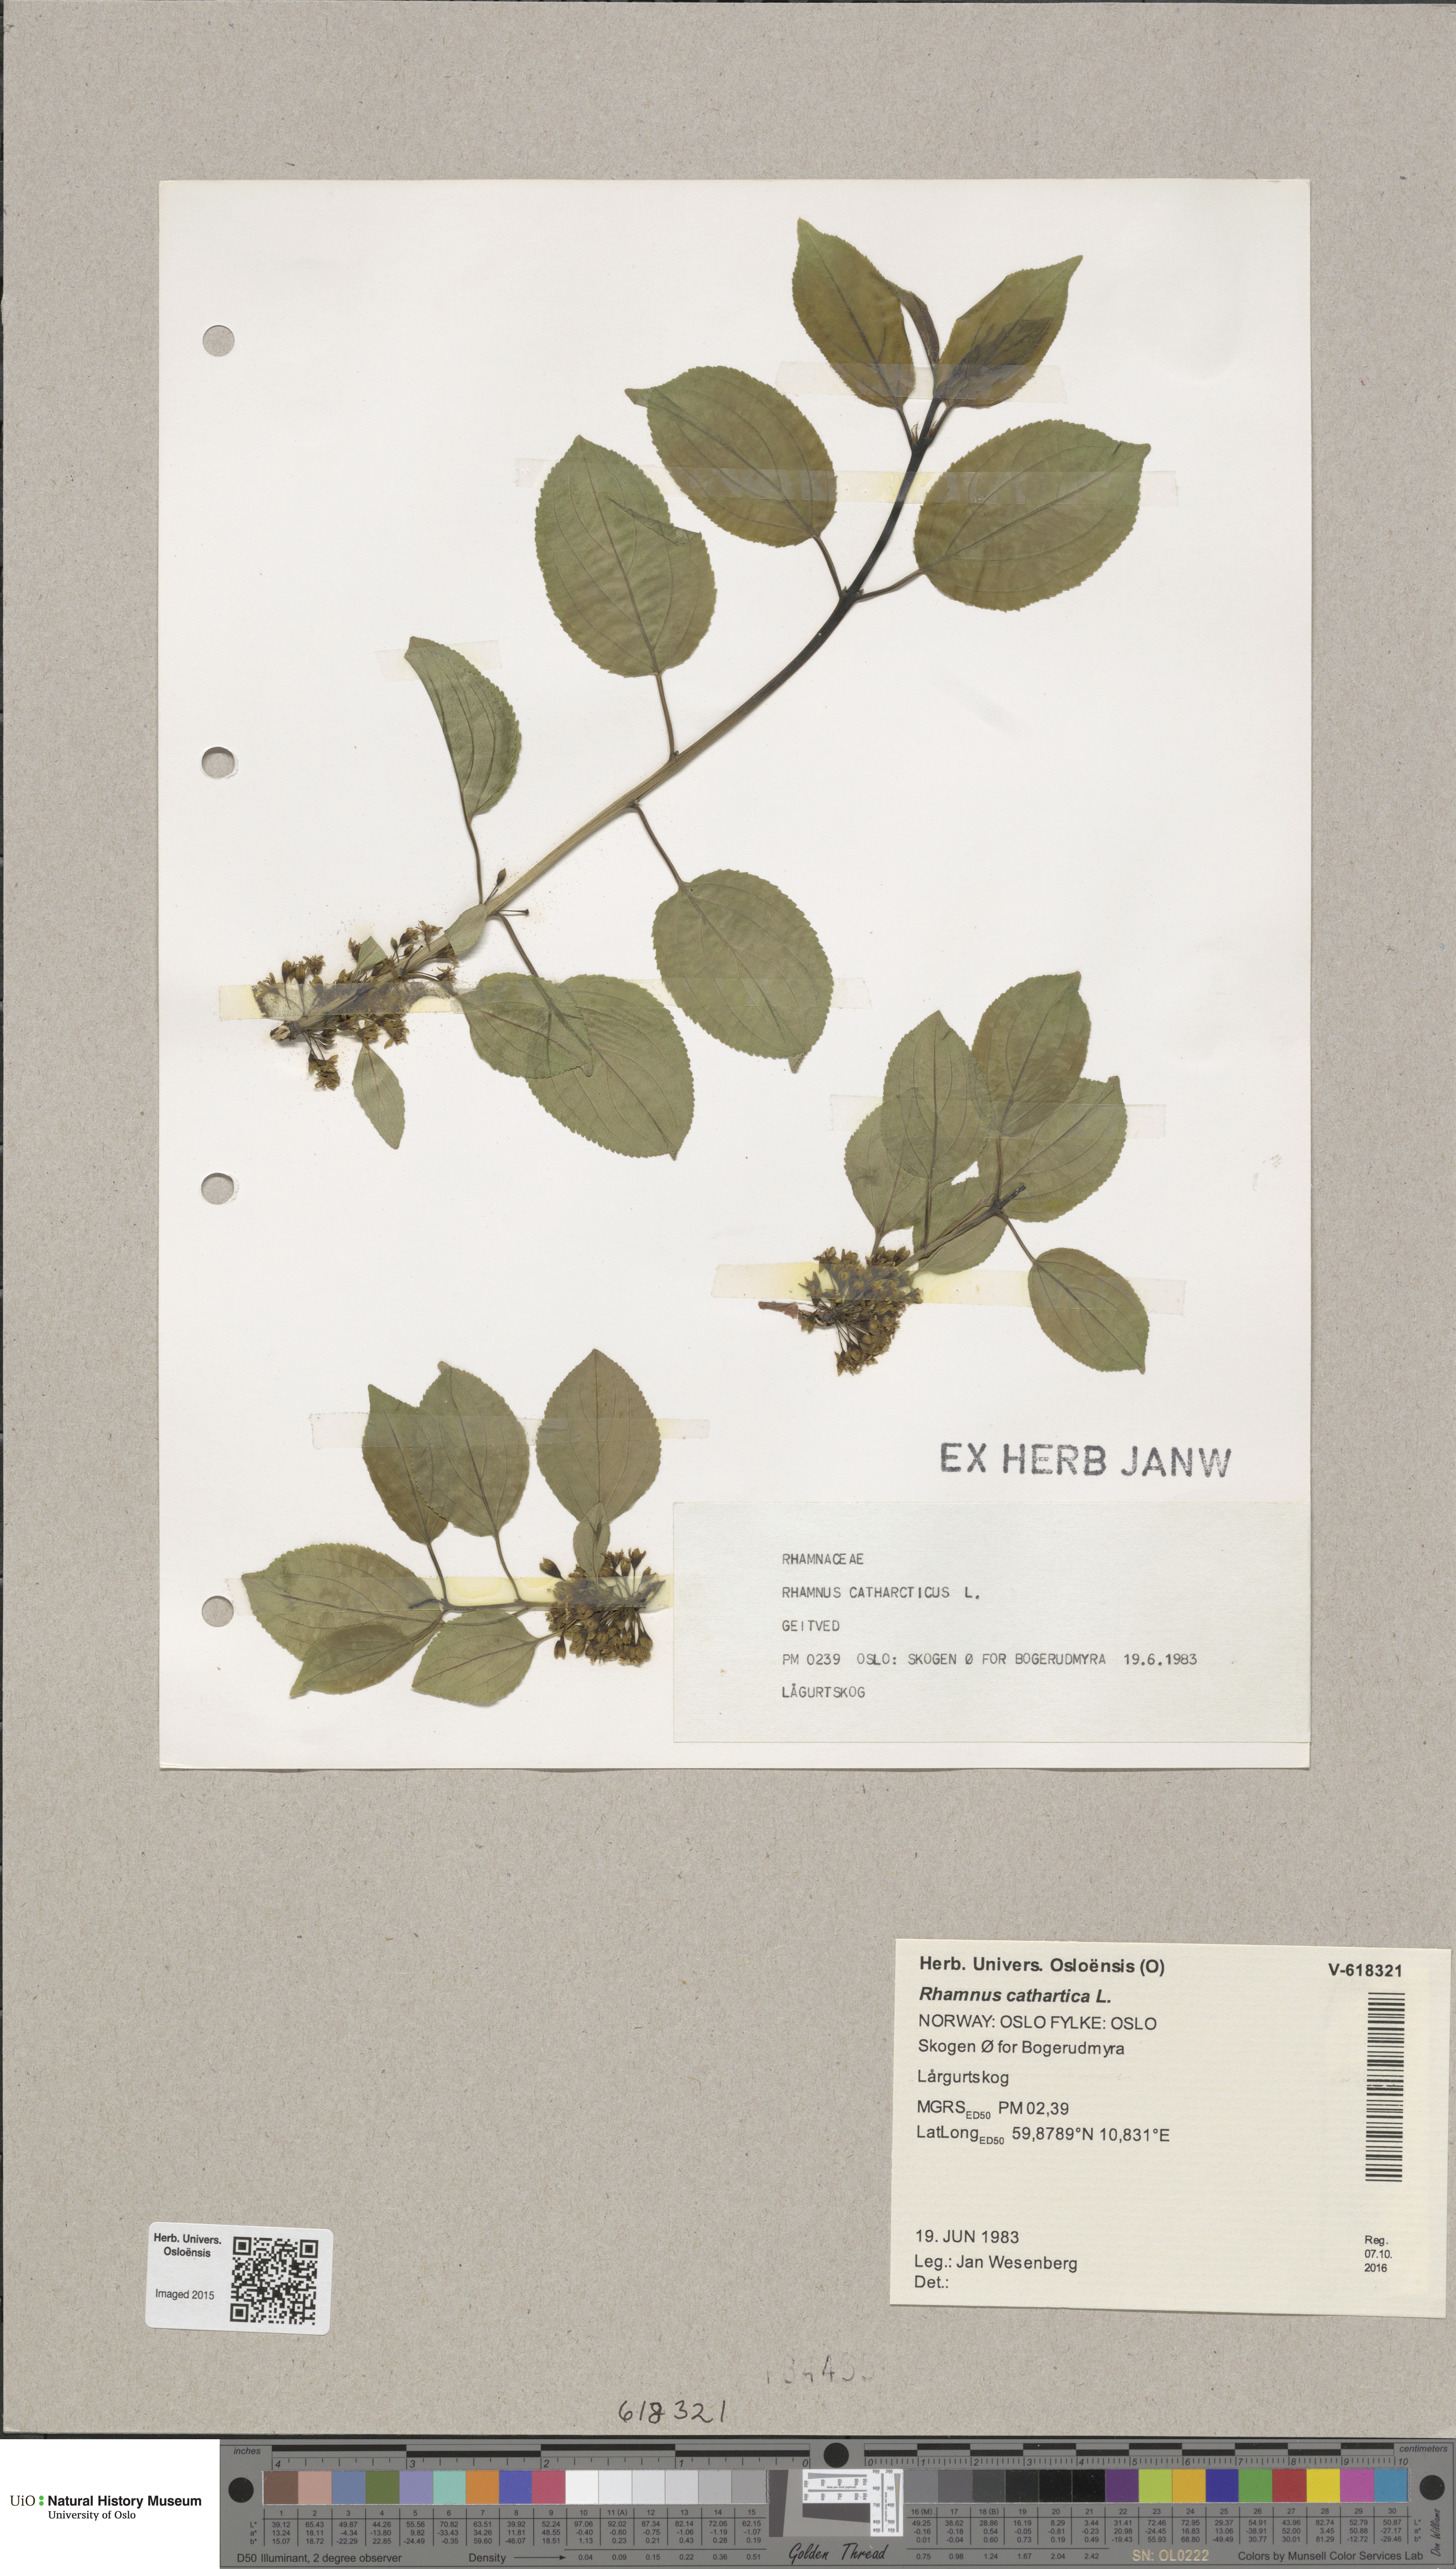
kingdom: Plantae
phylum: Tracheophyta
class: Magnoliopsida
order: Rosales
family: Rhamnaceae
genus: Rhamnus
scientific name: Rhamnus cathartica
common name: Common buckthorn
